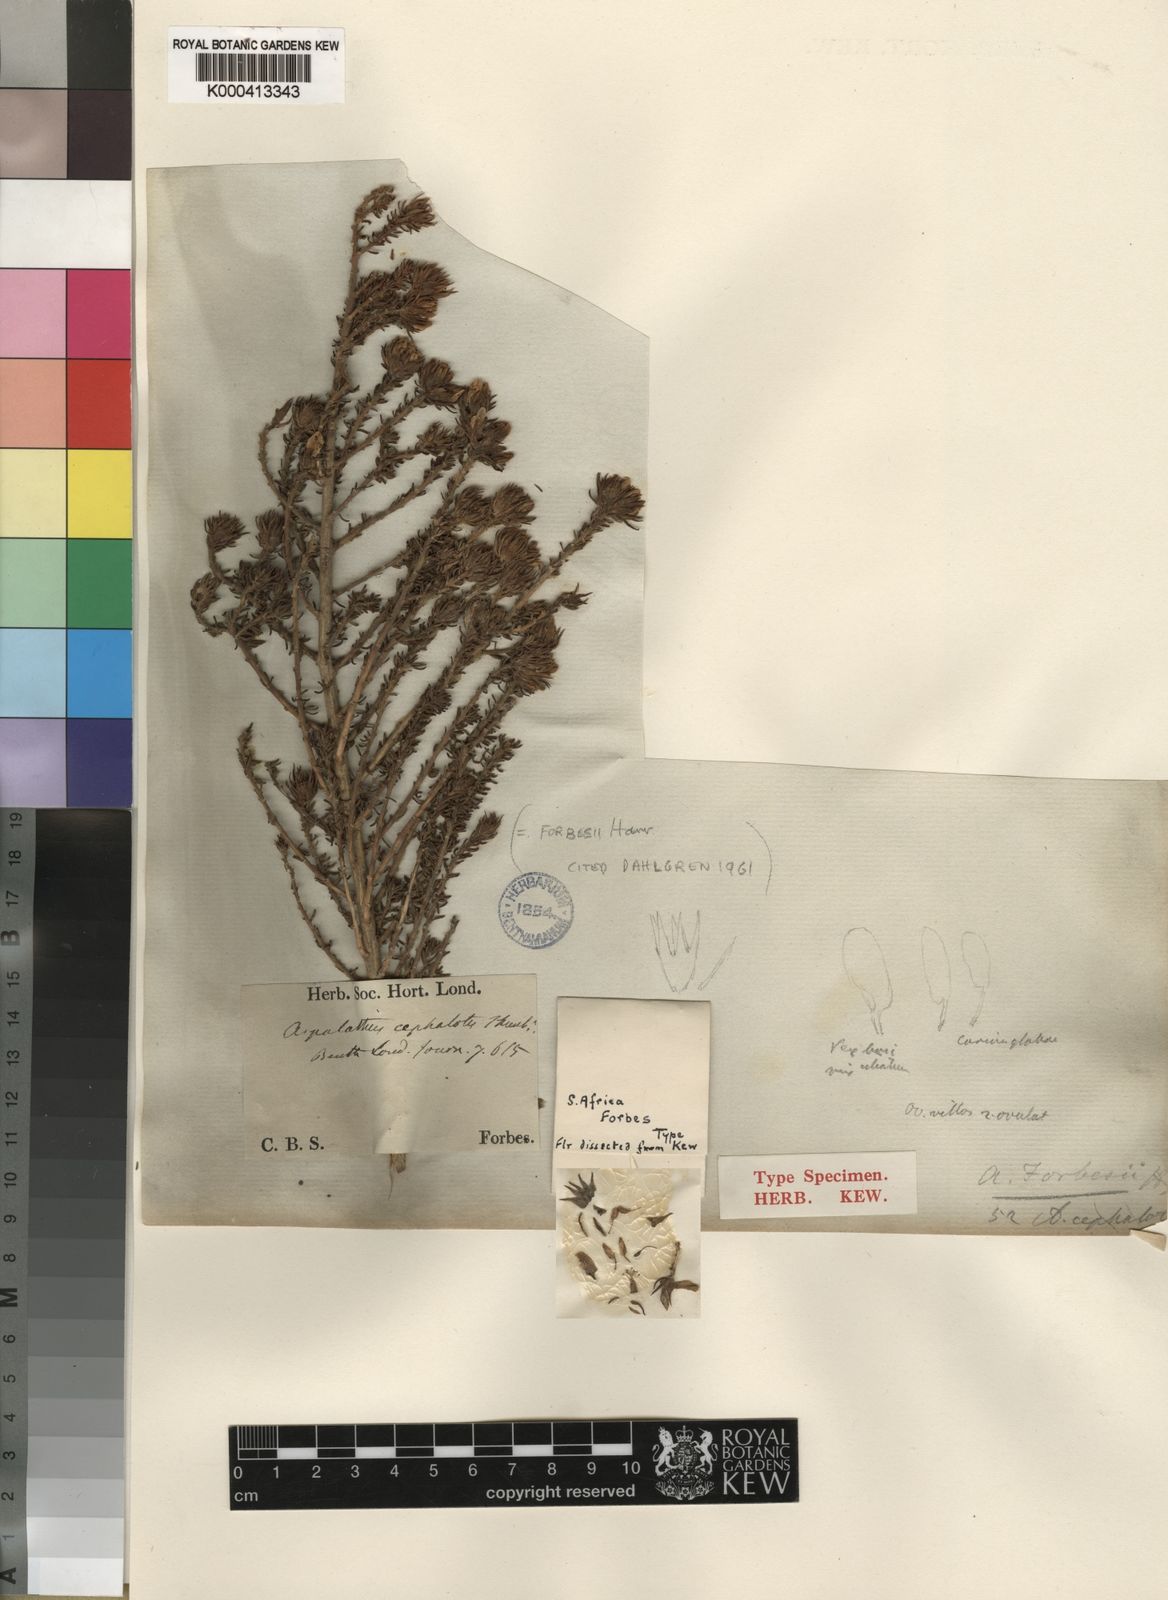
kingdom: Plantae
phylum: Tracheophyta
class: Magnoliopsida
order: Fabales
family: Fabaceae
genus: Aspalathus
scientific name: Aspalathus forbesii
